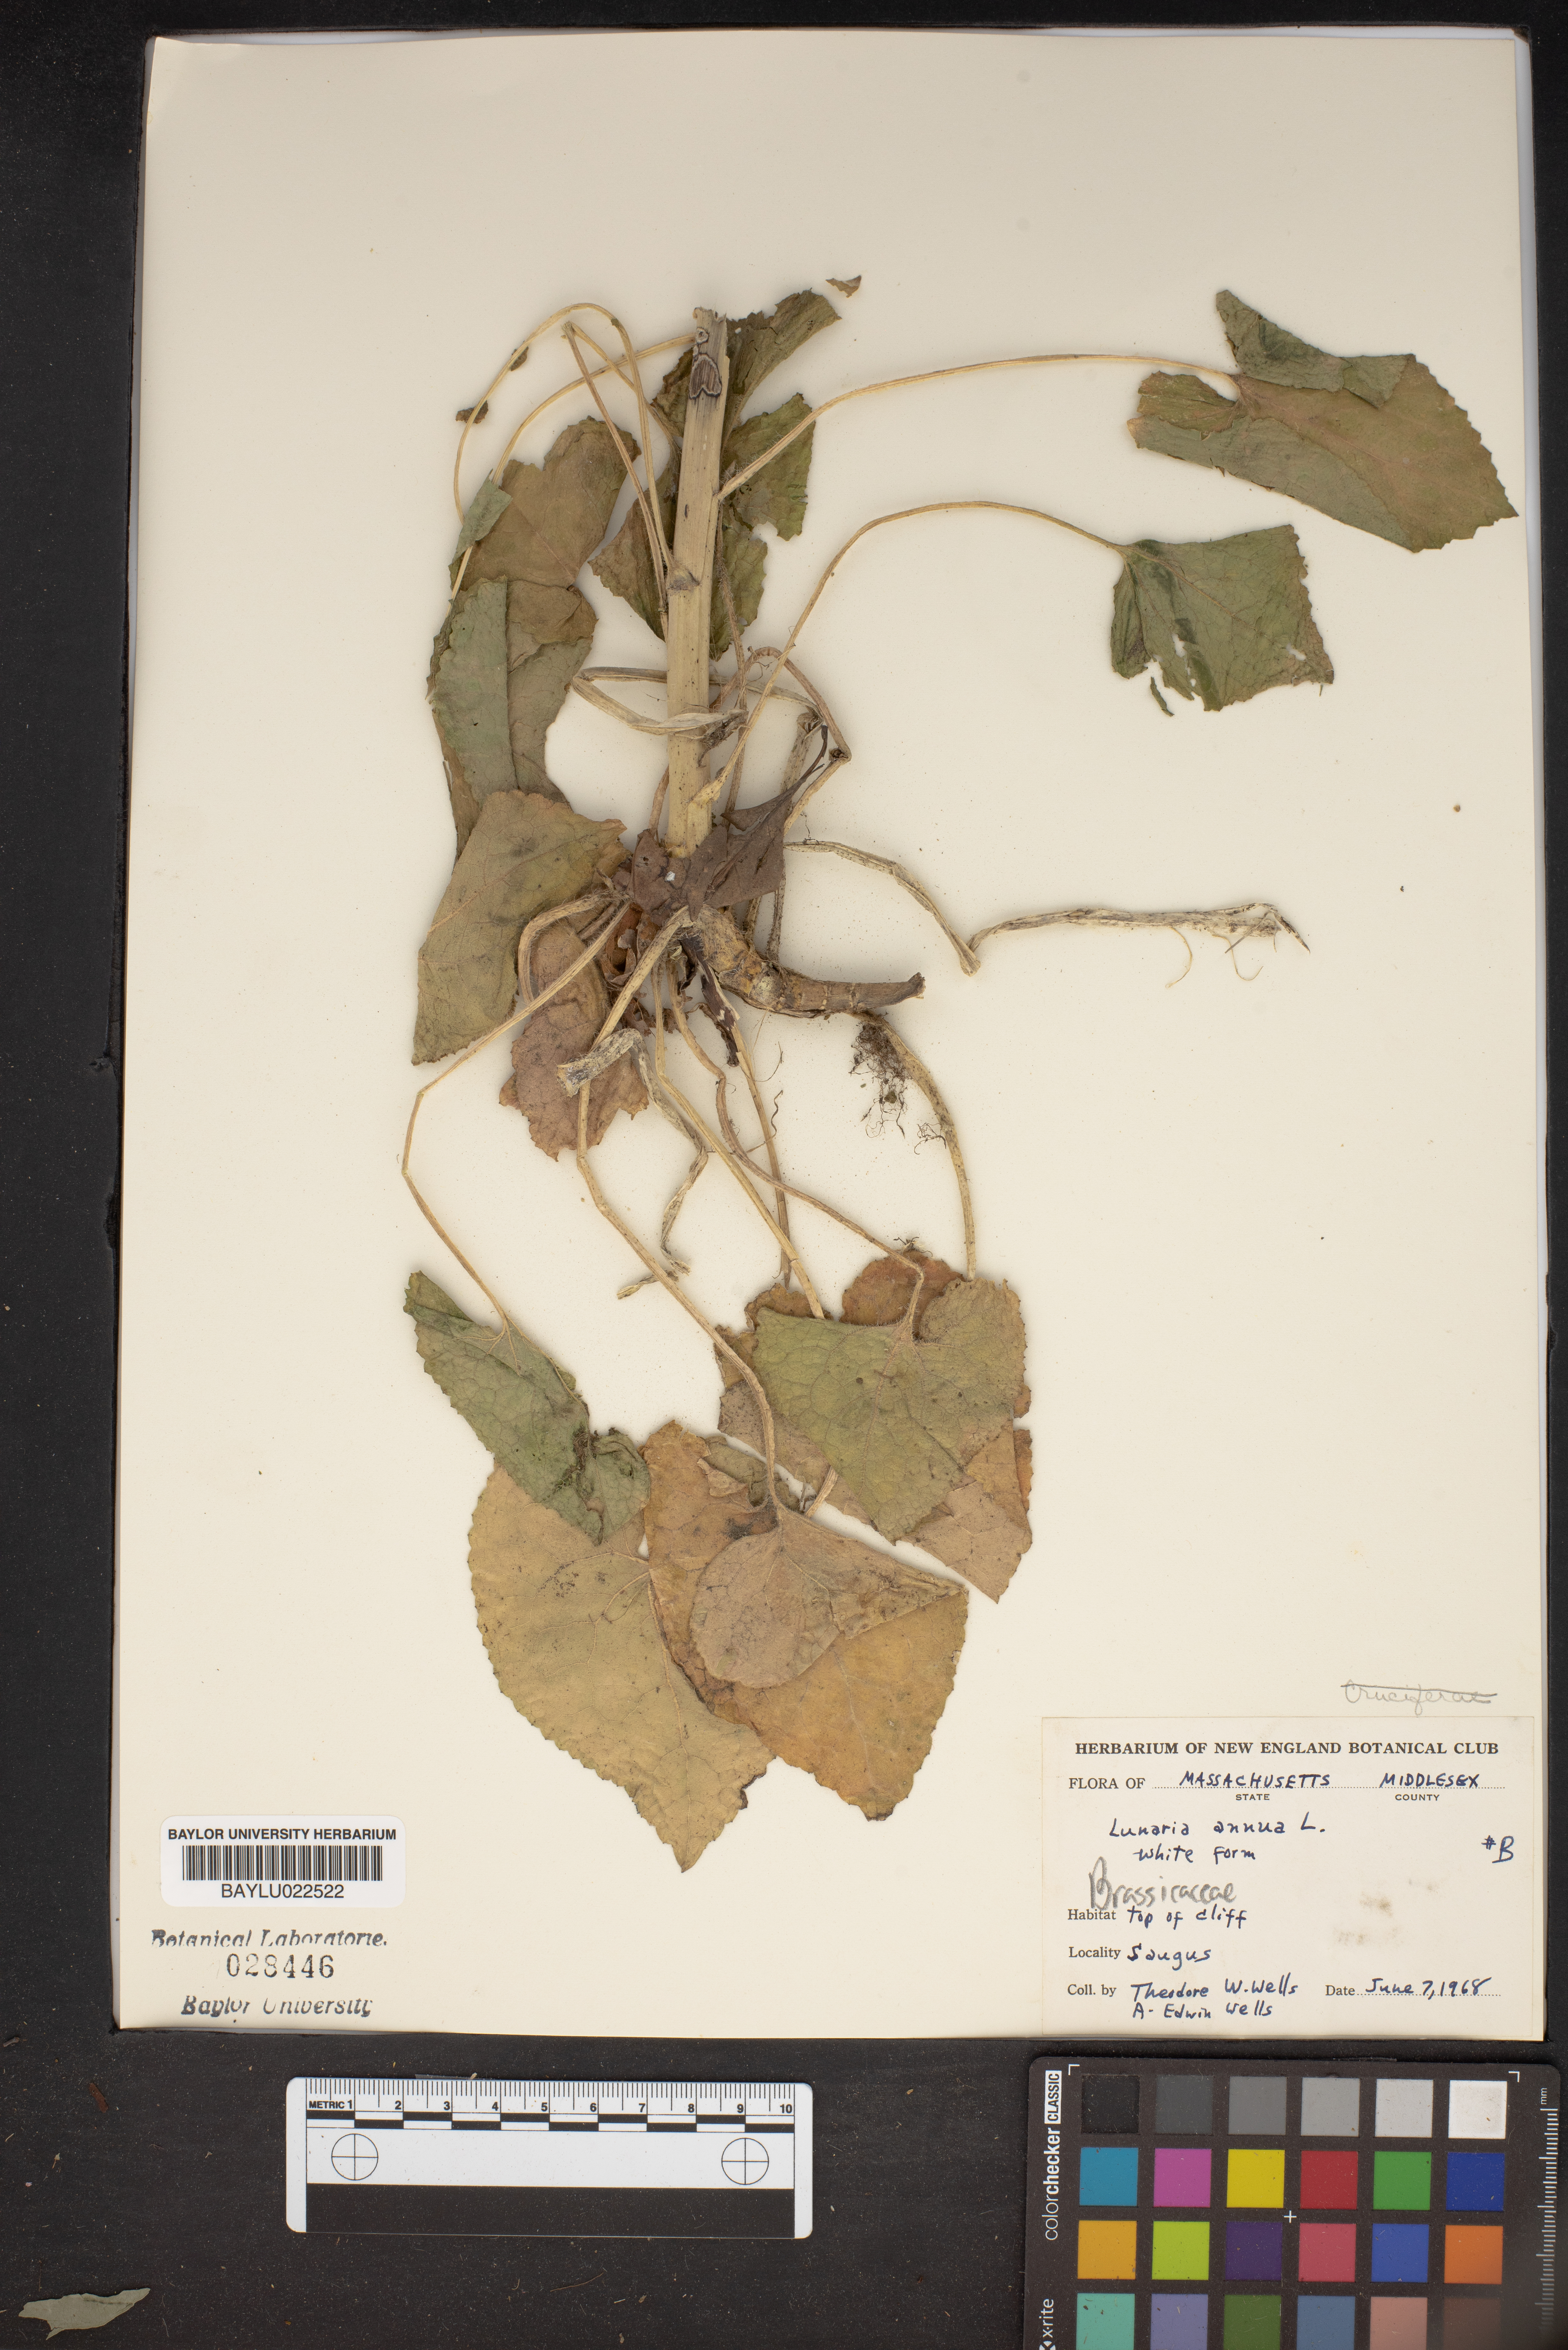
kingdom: Plantae
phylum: Tracheophyta
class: Magnoliopsida
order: Brassicales
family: Brassicaceae
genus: Lunaria
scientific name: Lunaria annua
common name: Honesty
